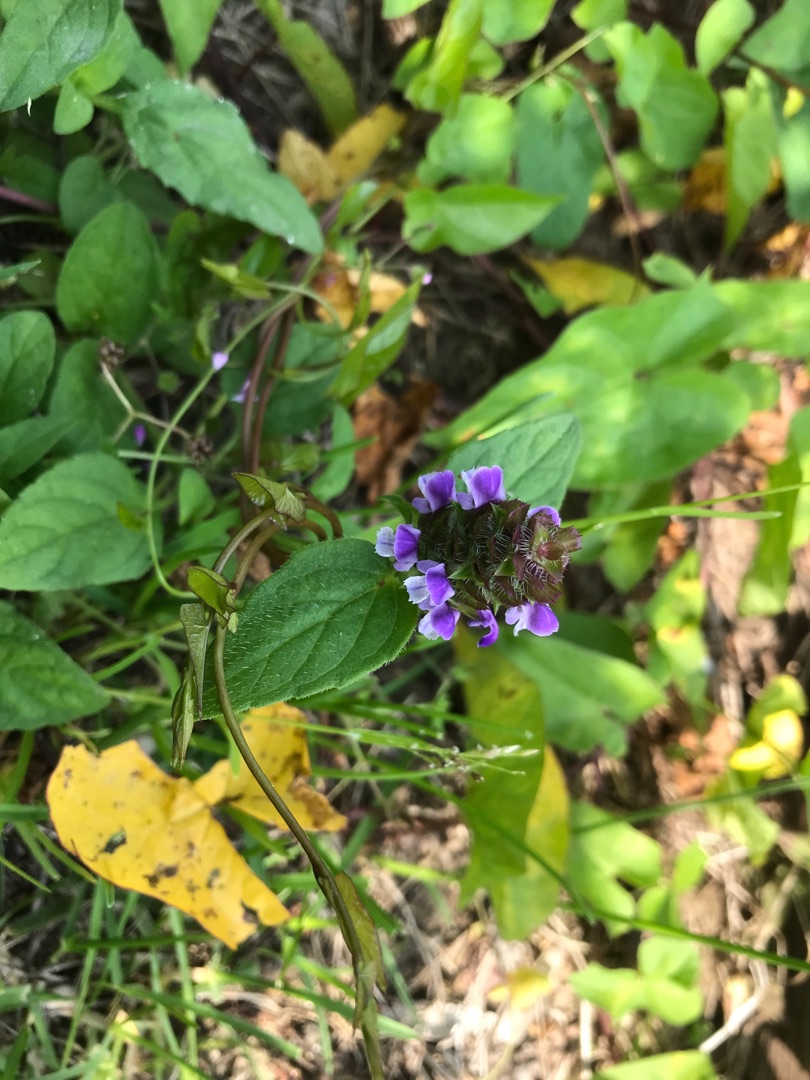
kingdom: Plantae
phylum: Tracheophyta
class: Magnoliopsida
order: Lamiales
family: Lamiaceae
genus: Prunella
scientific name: Prunella vulgaris
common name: Almindelig brunelle
